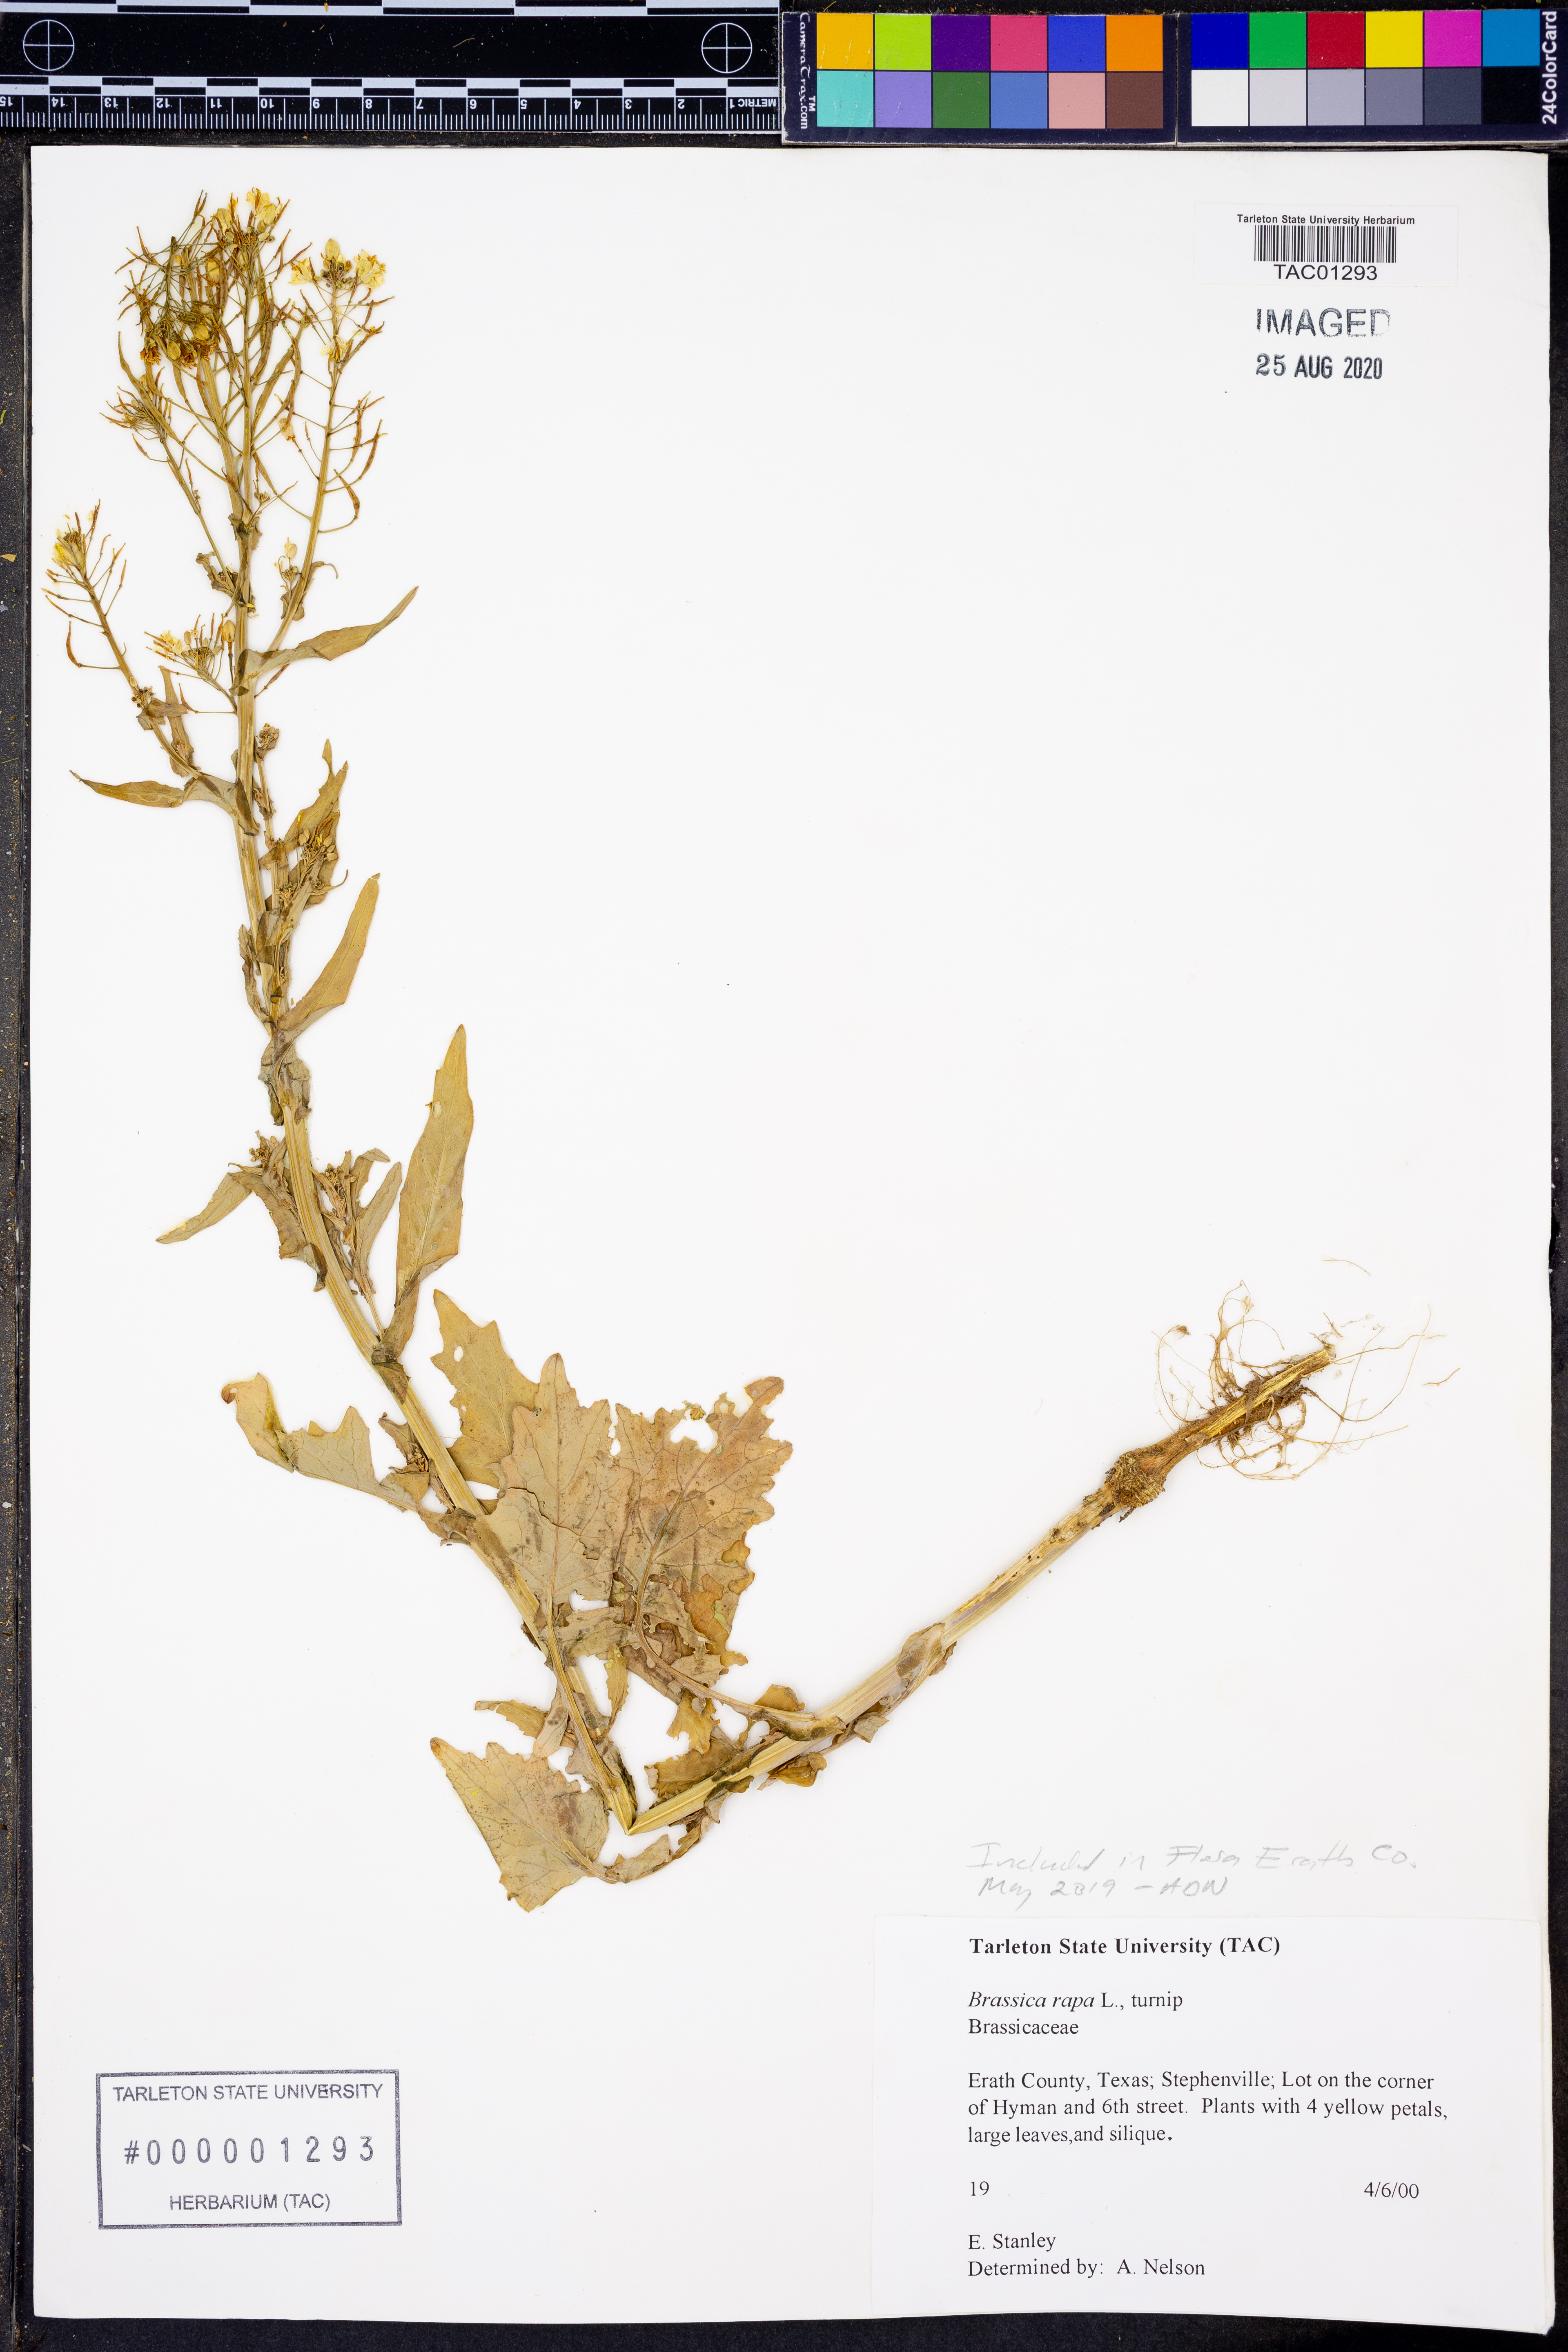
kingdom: Plantae
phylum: Tracheophyta
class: Magnoliopsida
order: Brassicales
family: Brassicaceae
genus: Brassica
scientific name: Brassica rapa
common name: Field mustard
